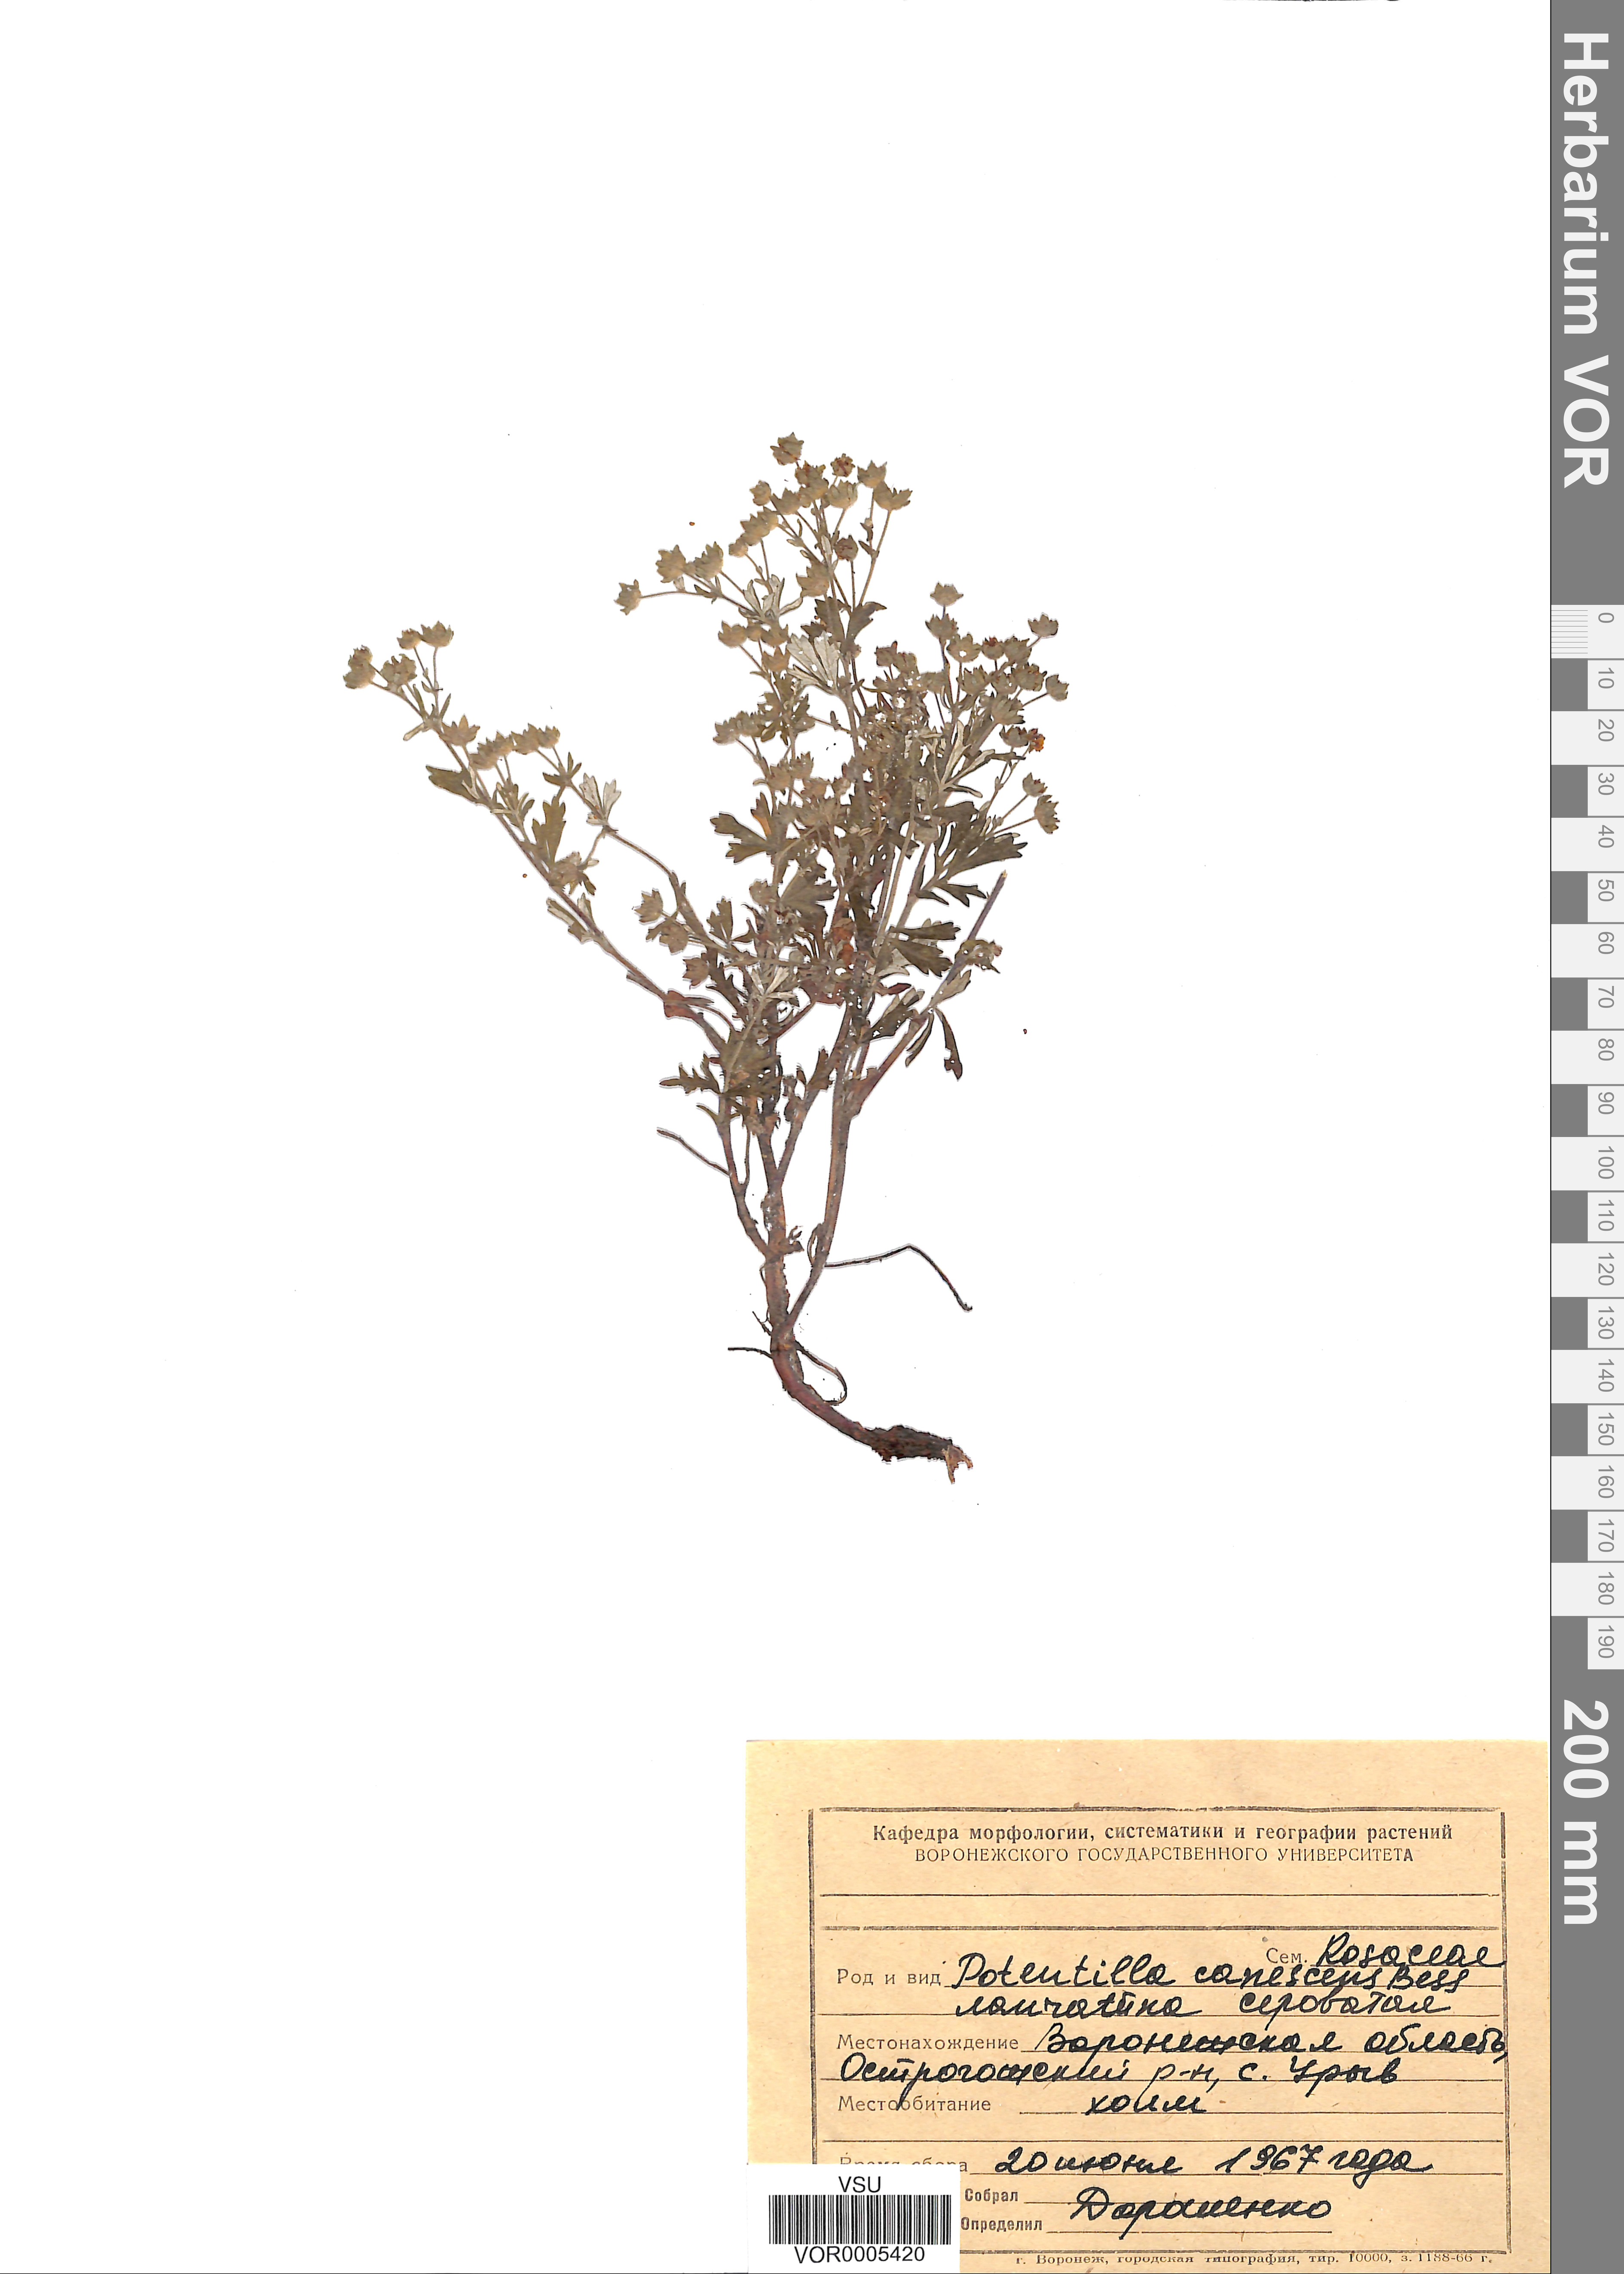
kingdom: Plantae
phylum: Tracheophyta
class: Magnoliopsida
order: Rosales
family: Rosaceae
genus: Potentilla
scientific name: Potentilla inclinata
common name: Grey cinquefoil
